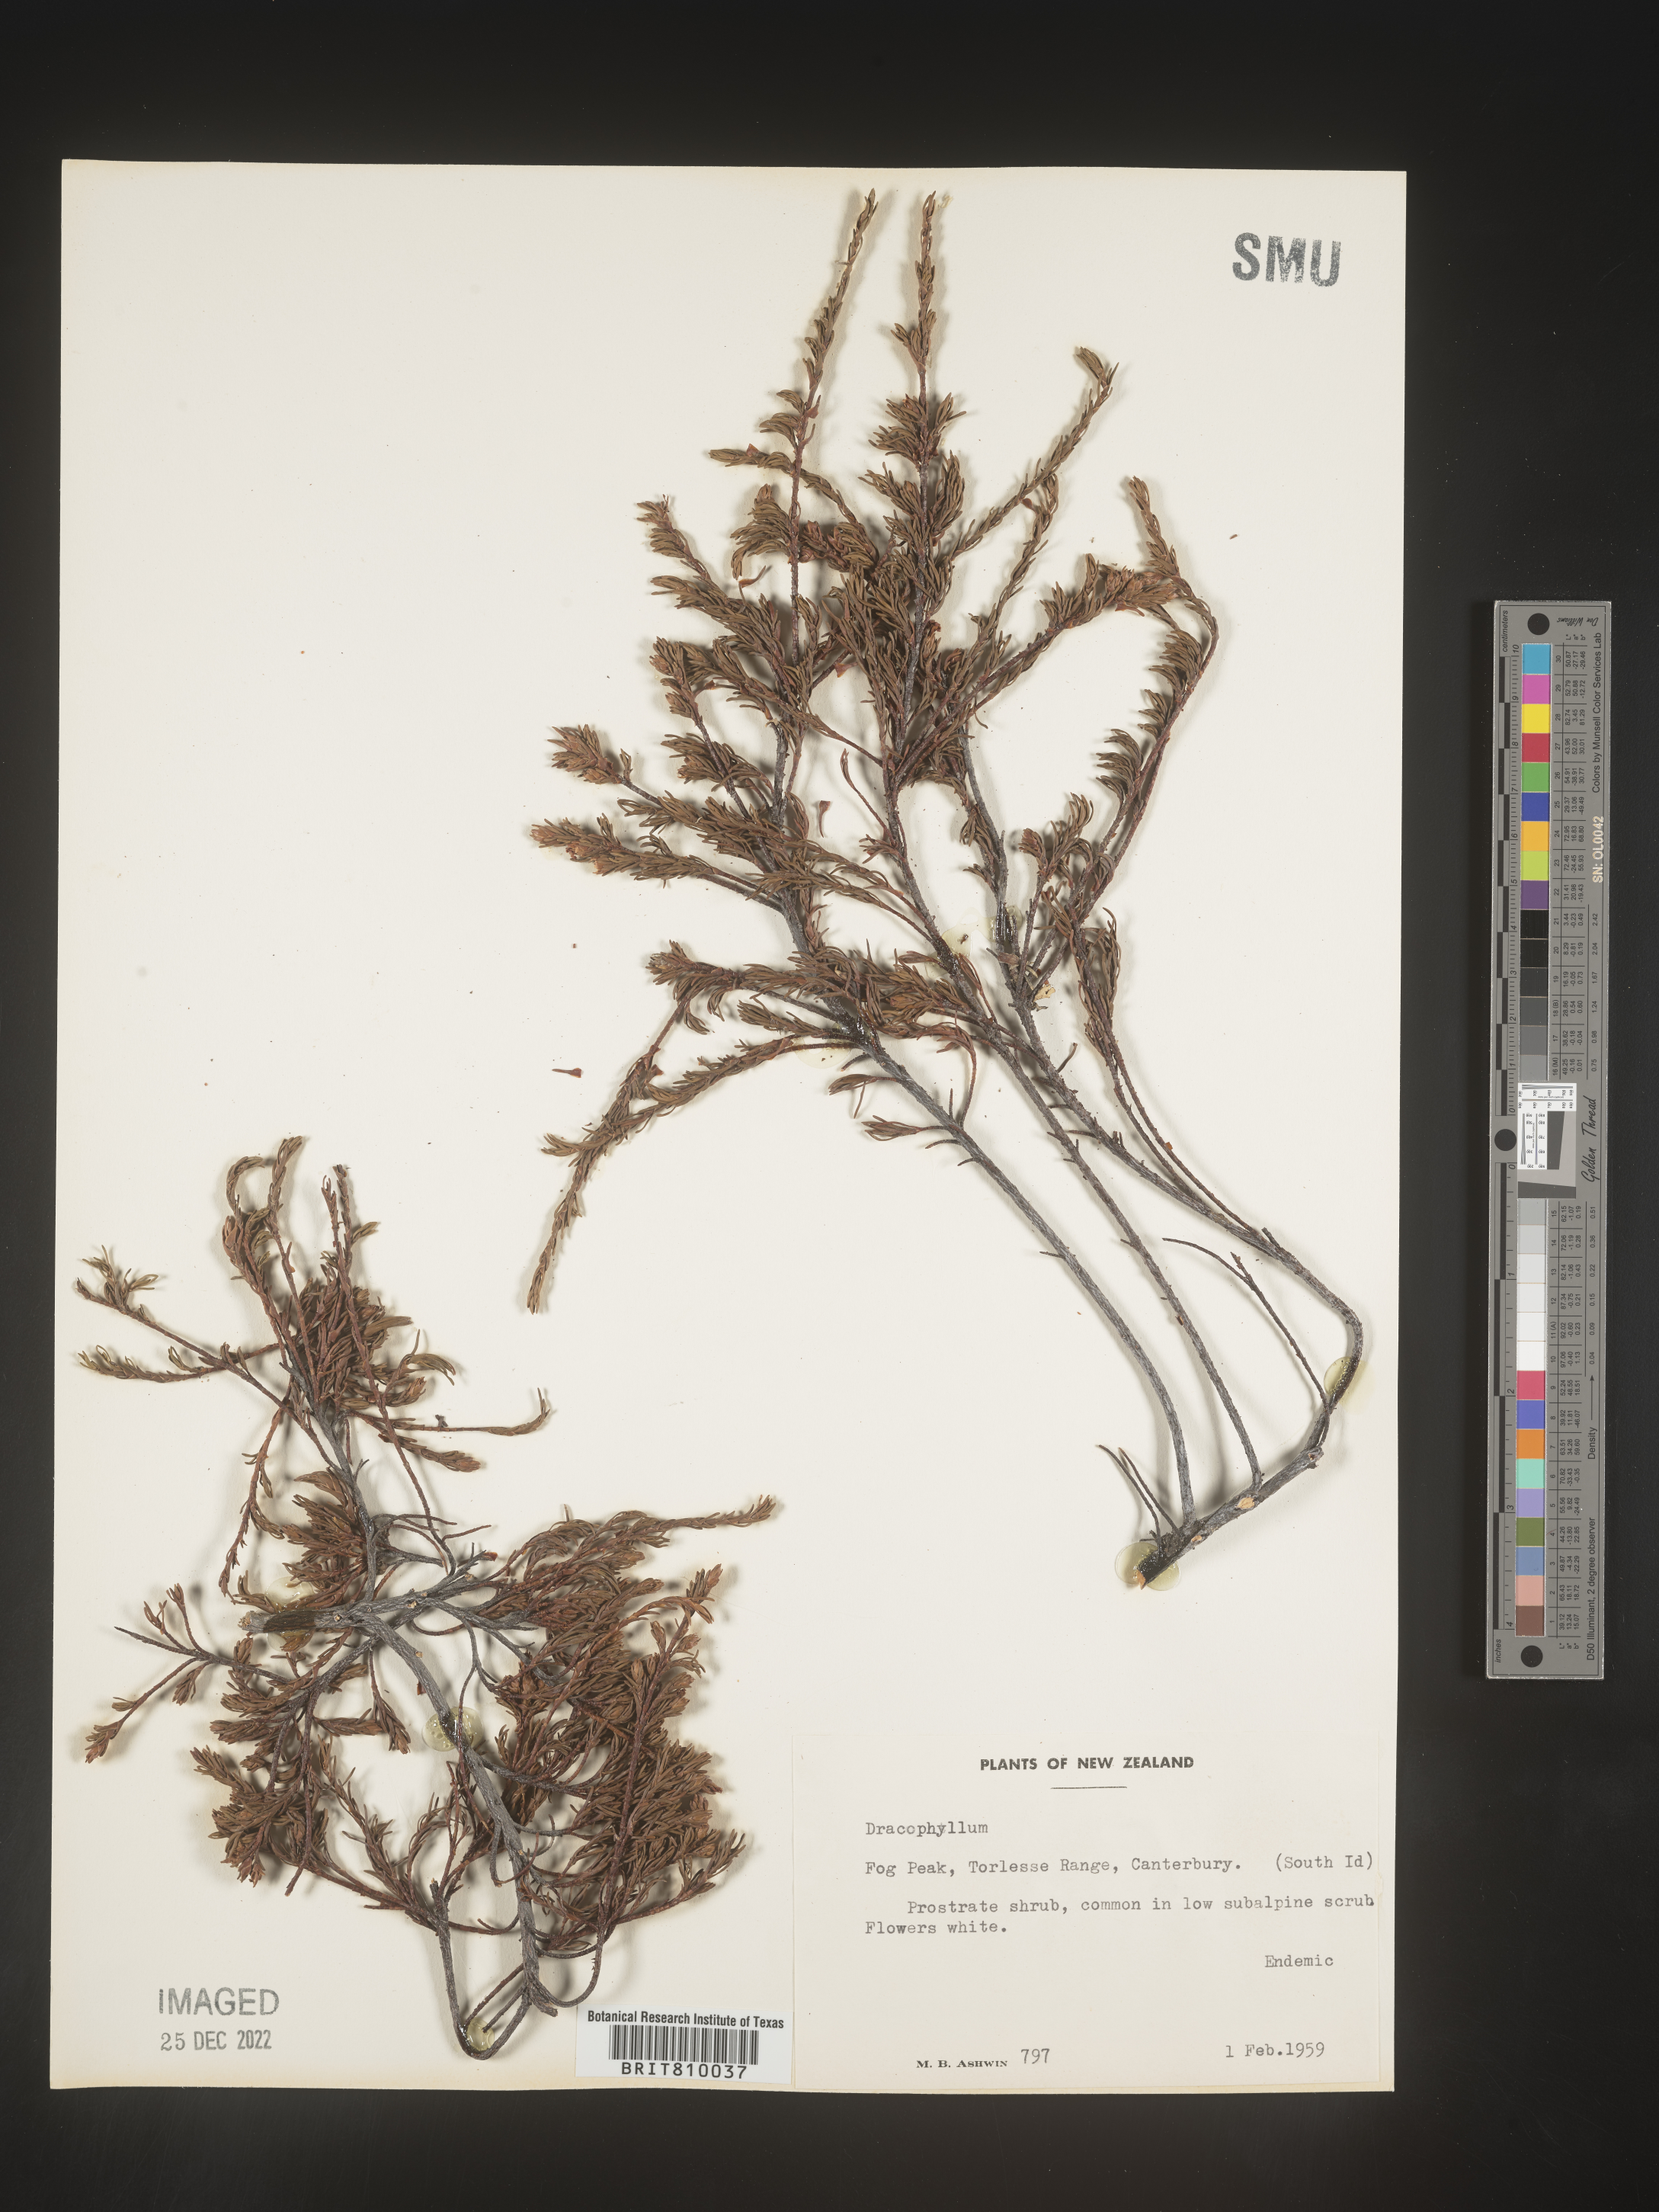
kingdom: Plantae
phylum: Tracheophyta
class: Magnoliopsida
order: Ericales
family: Ericaceae
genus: Dracophyllum
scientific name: Dracophyllum
